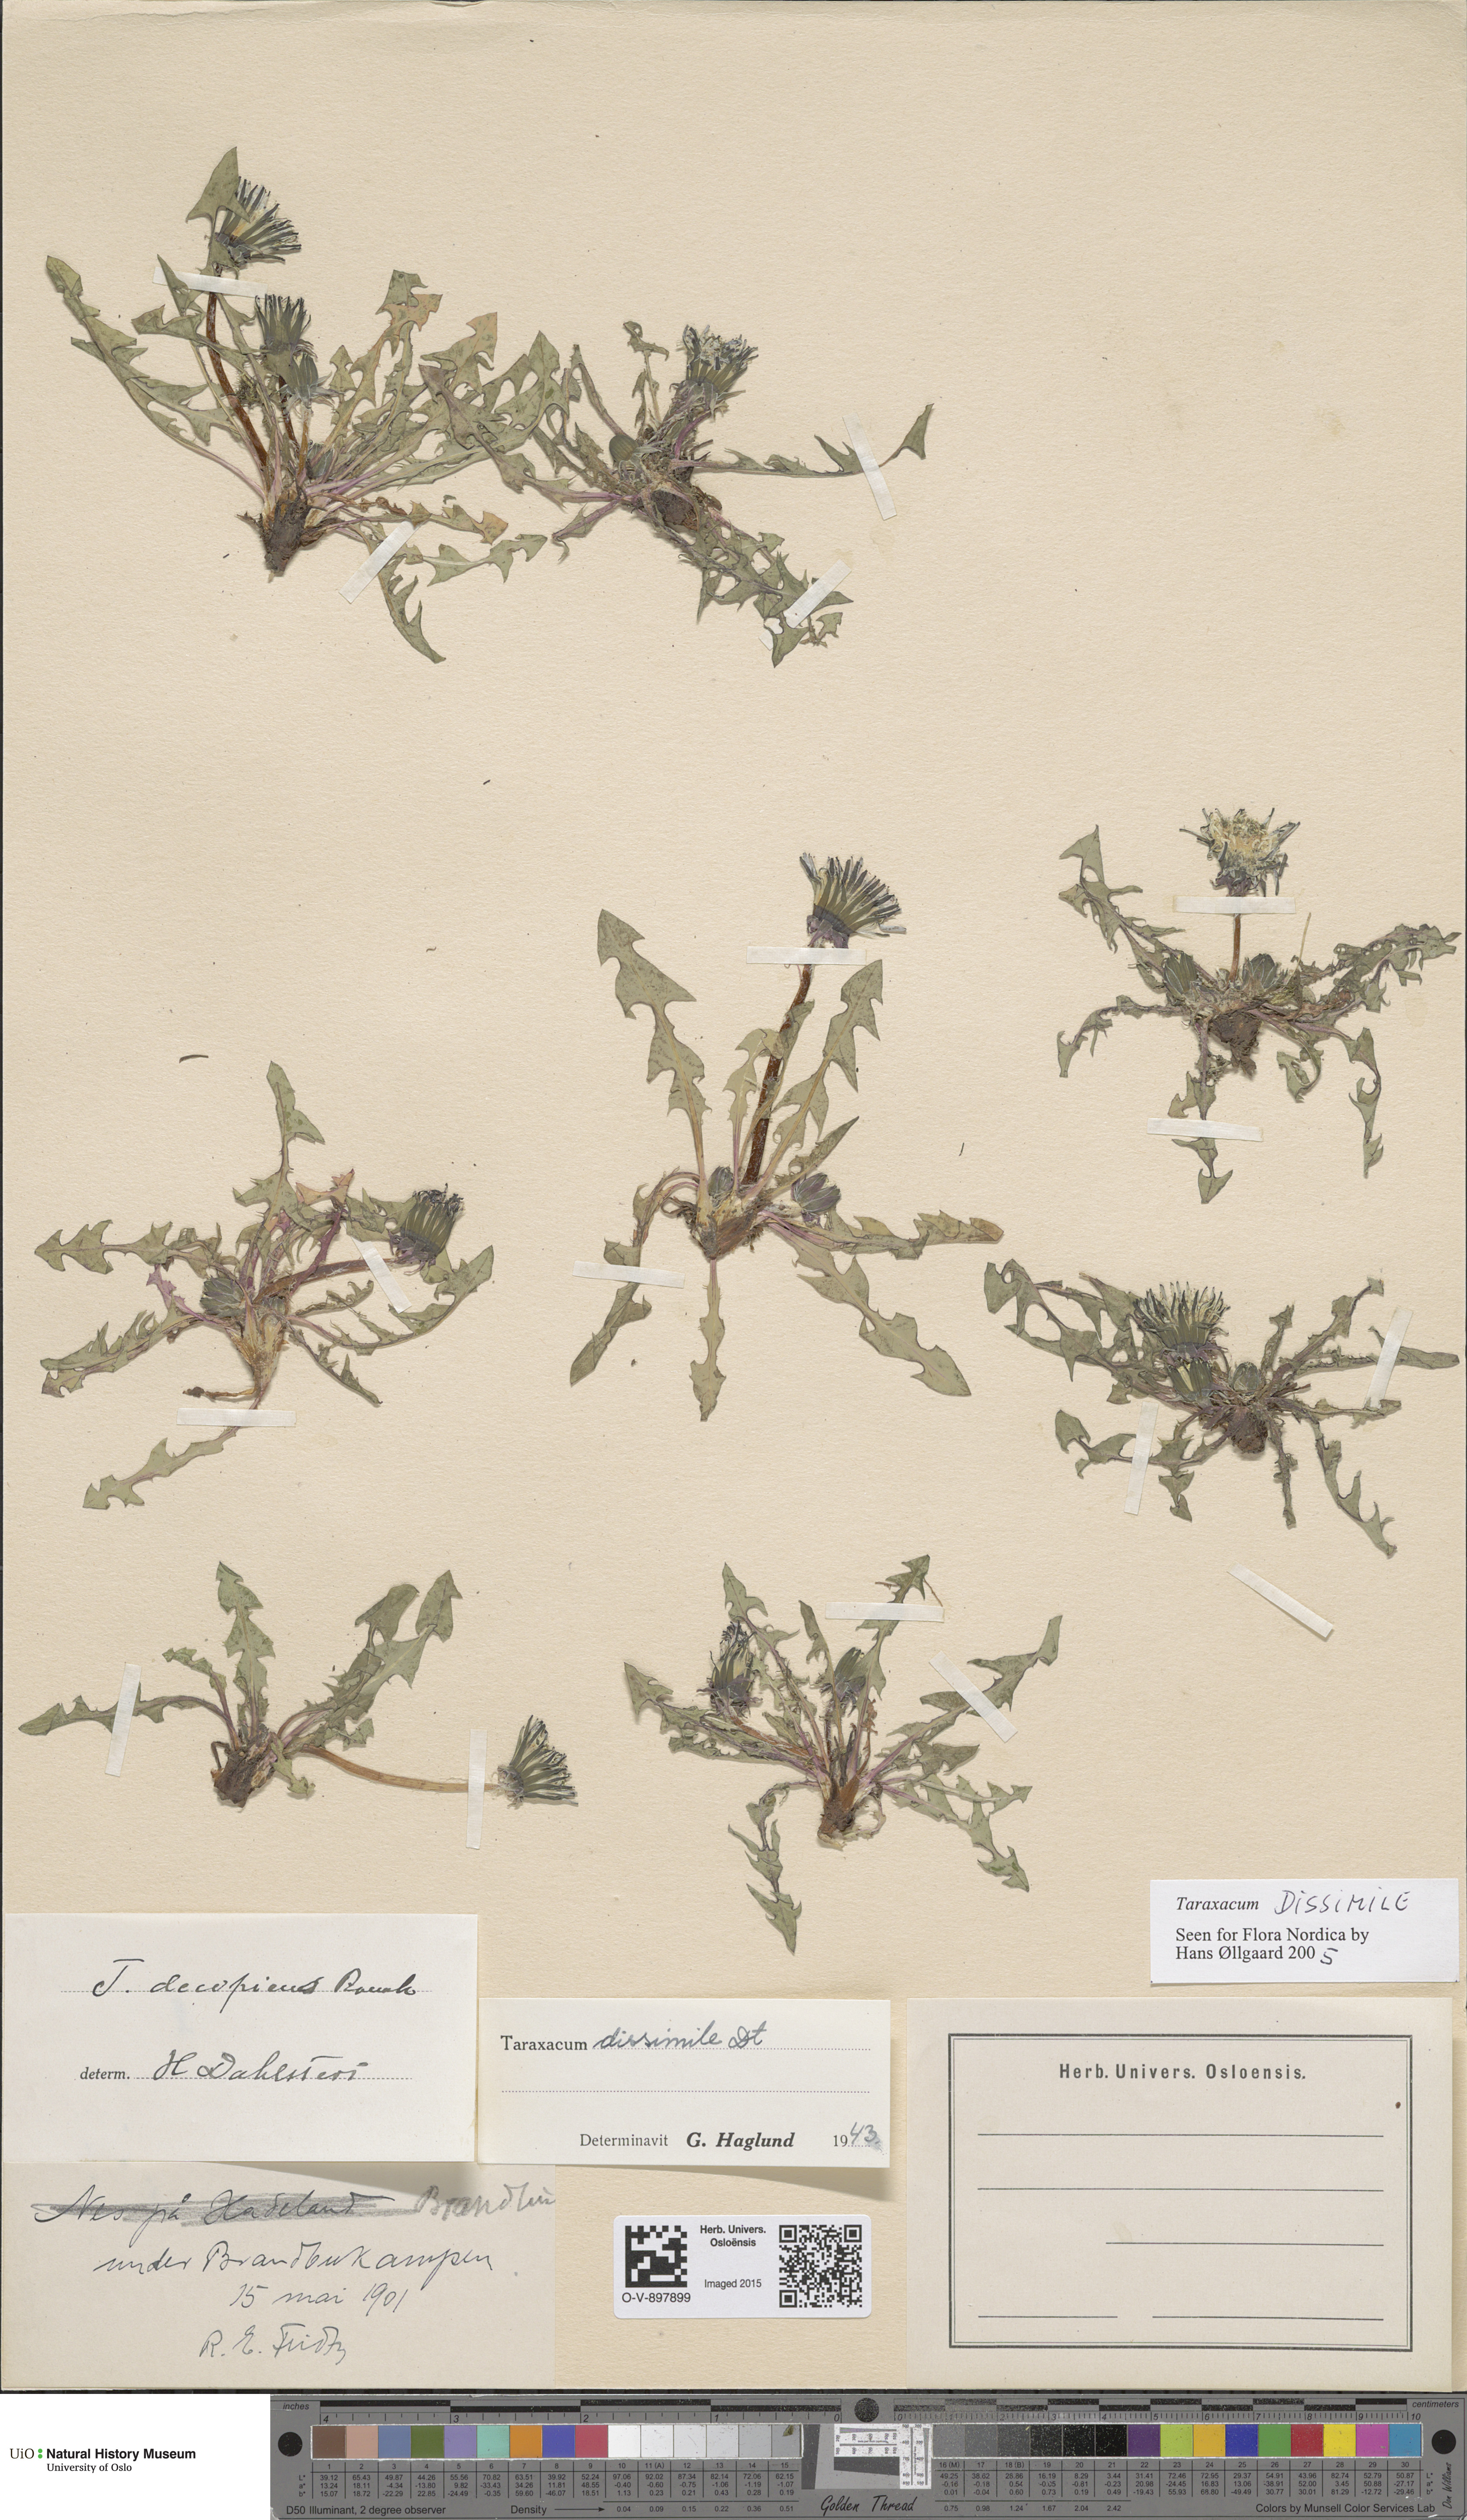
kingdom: Plantae
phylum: Tracheophyta
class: Magnoliopsida
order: Asterales
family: Asteraceae
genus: Taraxacum
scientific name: Taraxacum dissimile
